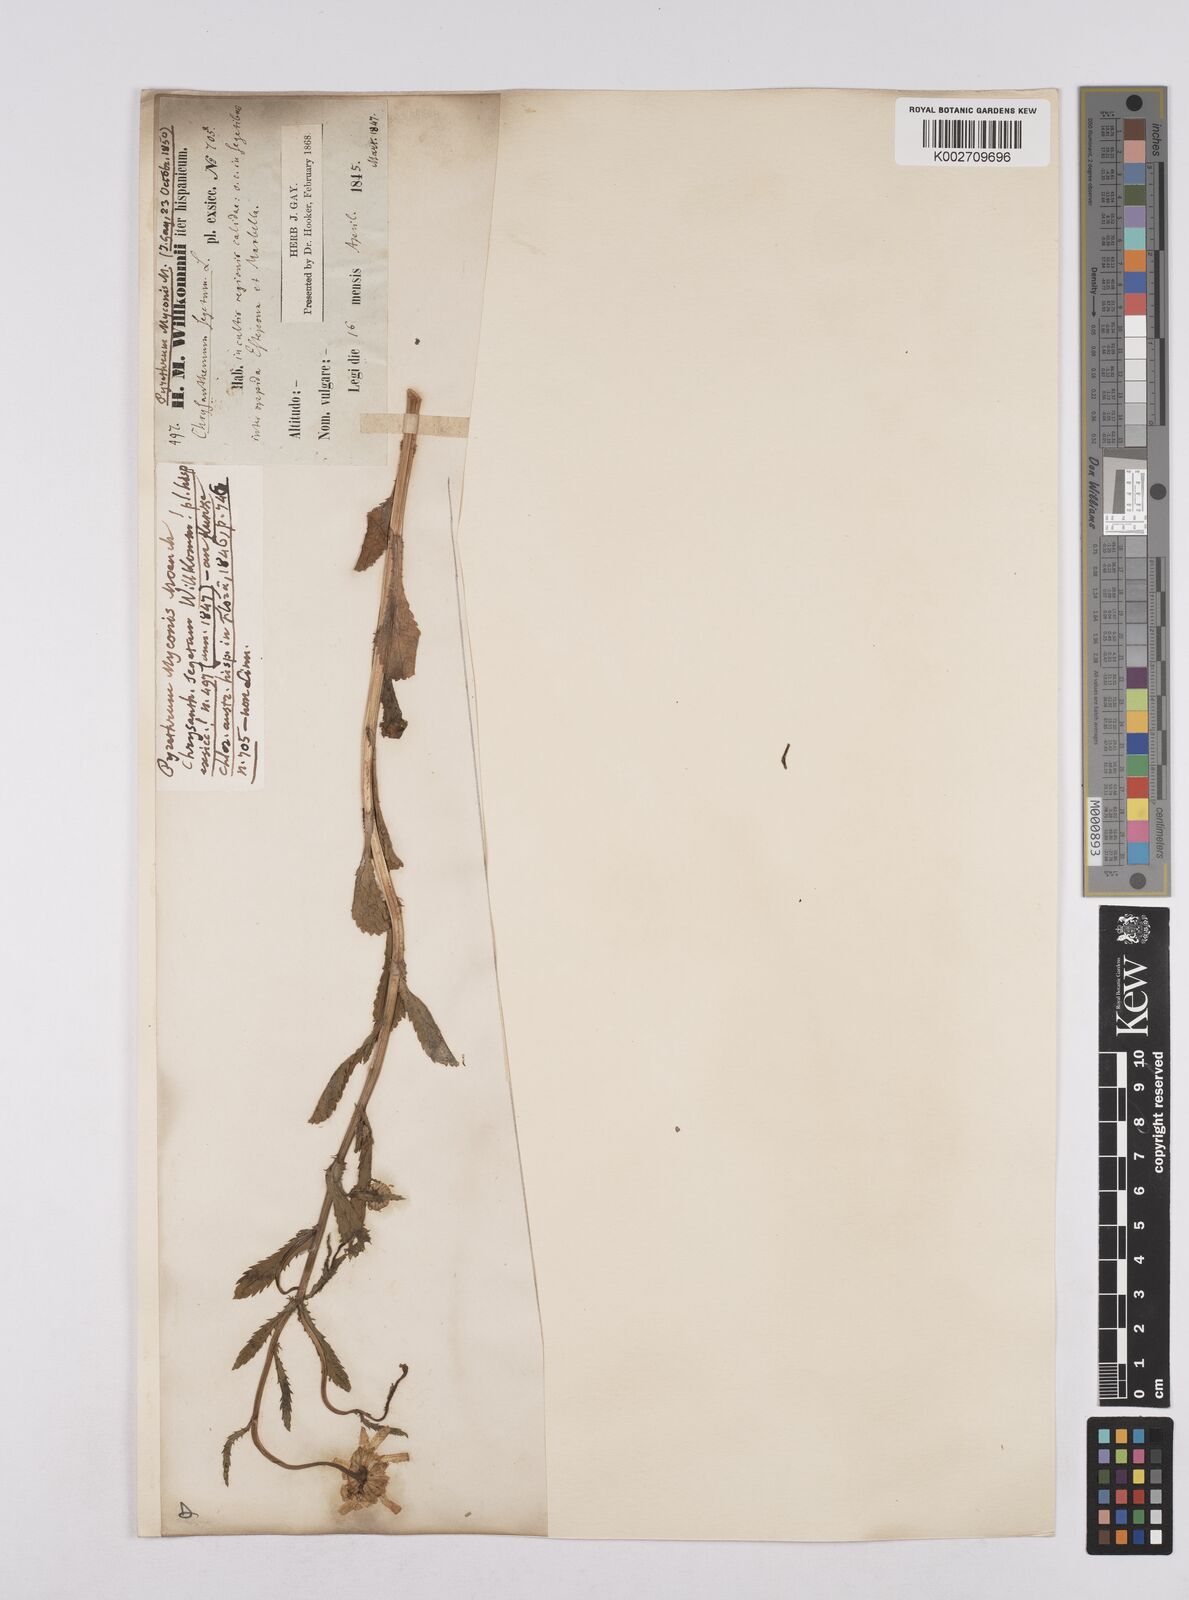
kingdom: Plantae
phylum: Tracheophyta
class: Magnoliopsida
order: Asterales
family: Asteraceae
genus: Coleostephus
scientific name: Coleostephus myconis
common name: Mediterranean marigold
